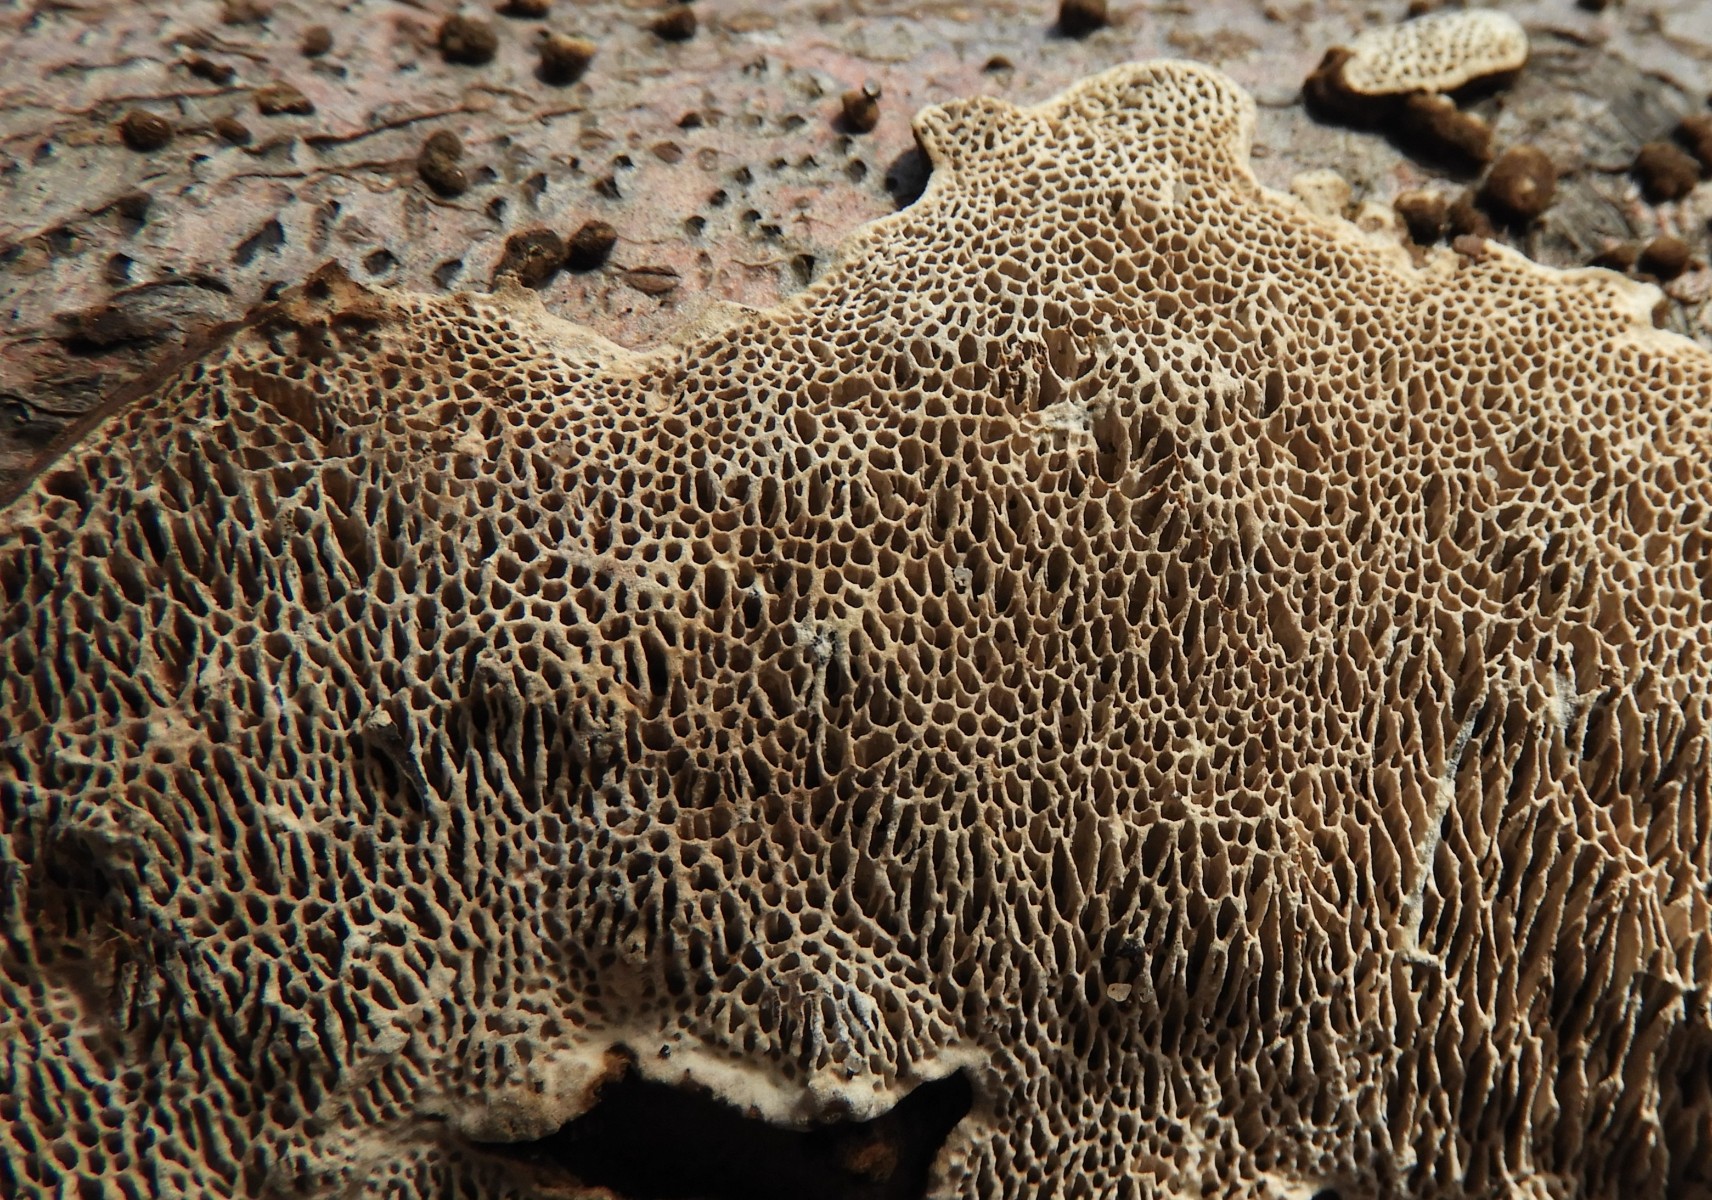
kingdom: Fungi
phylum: Basidiomycota
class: Agaricomycetes
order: Polyporales
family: Polyporaceae
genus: Podofomes
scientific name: Podofomes mollis
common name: blød begporesvamp
